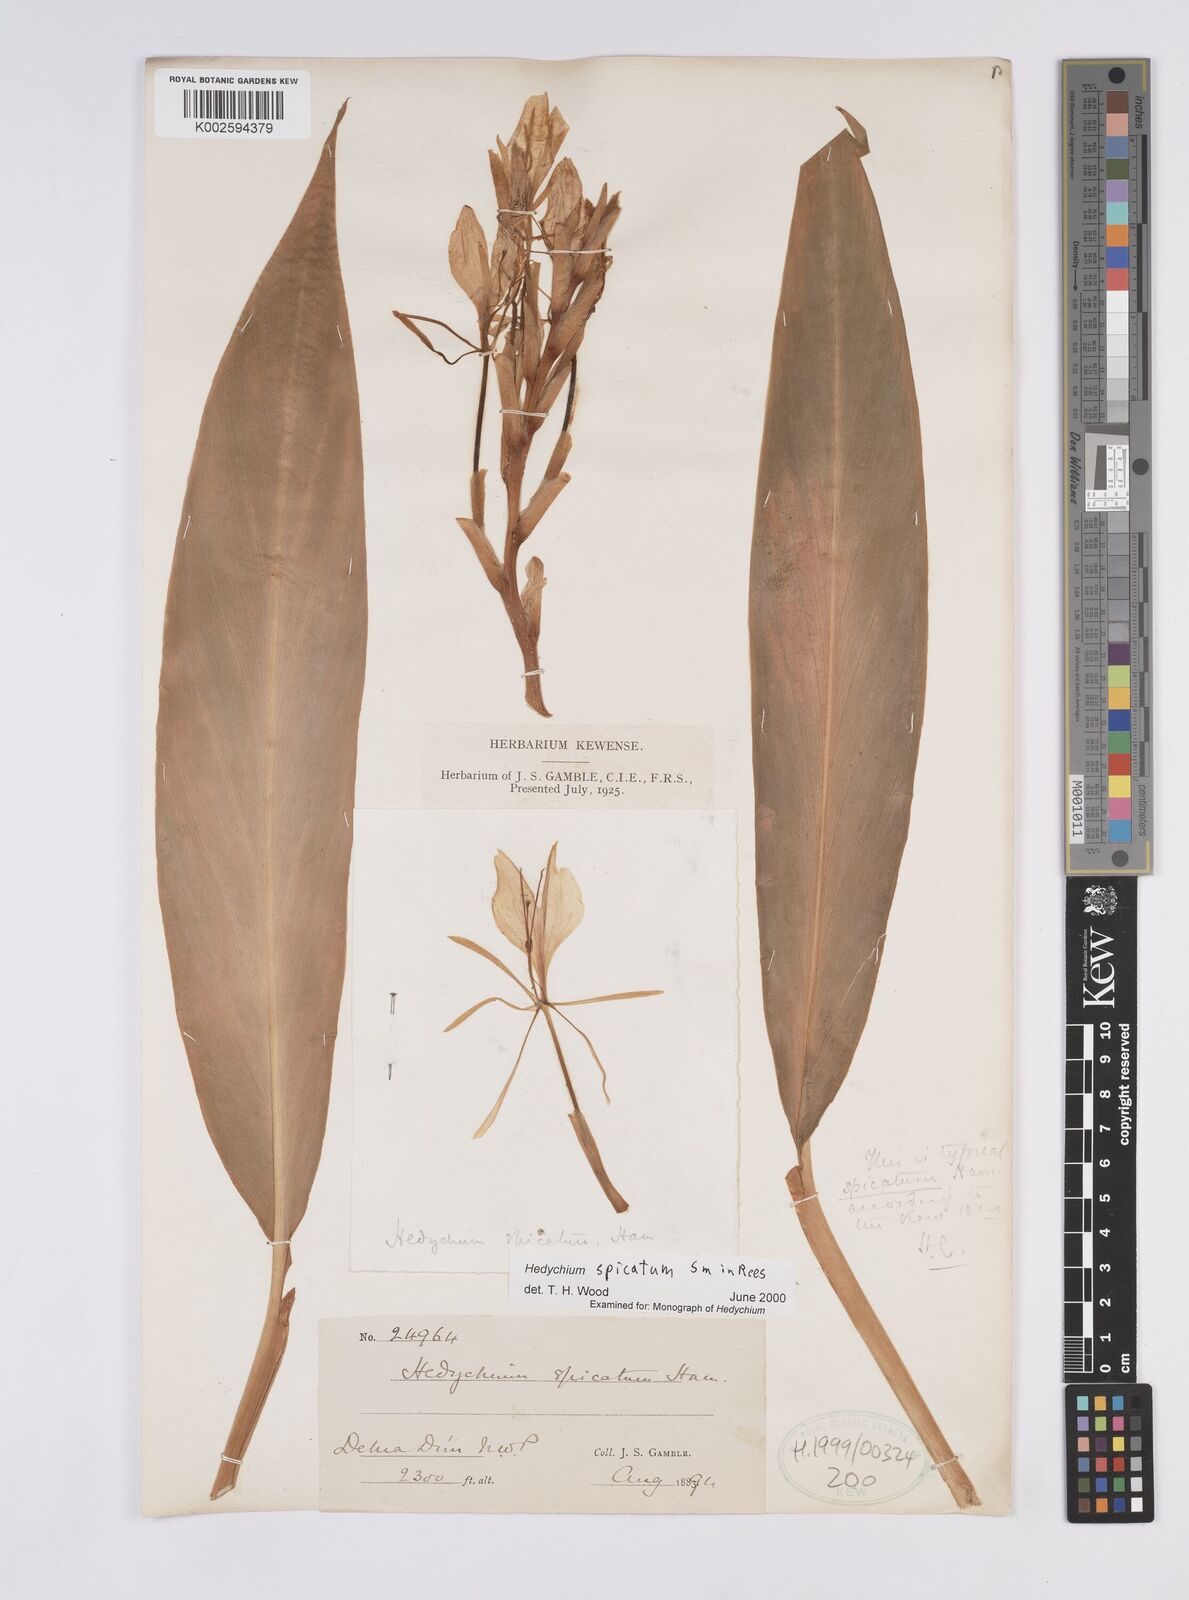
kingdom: Plantae
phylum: Tracheophyta
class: Liliopsida
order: Zingiberales
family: Zingiberaceae
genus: Hedychium
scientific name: Hedychium spicatum
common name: Spiked ginger-lily
